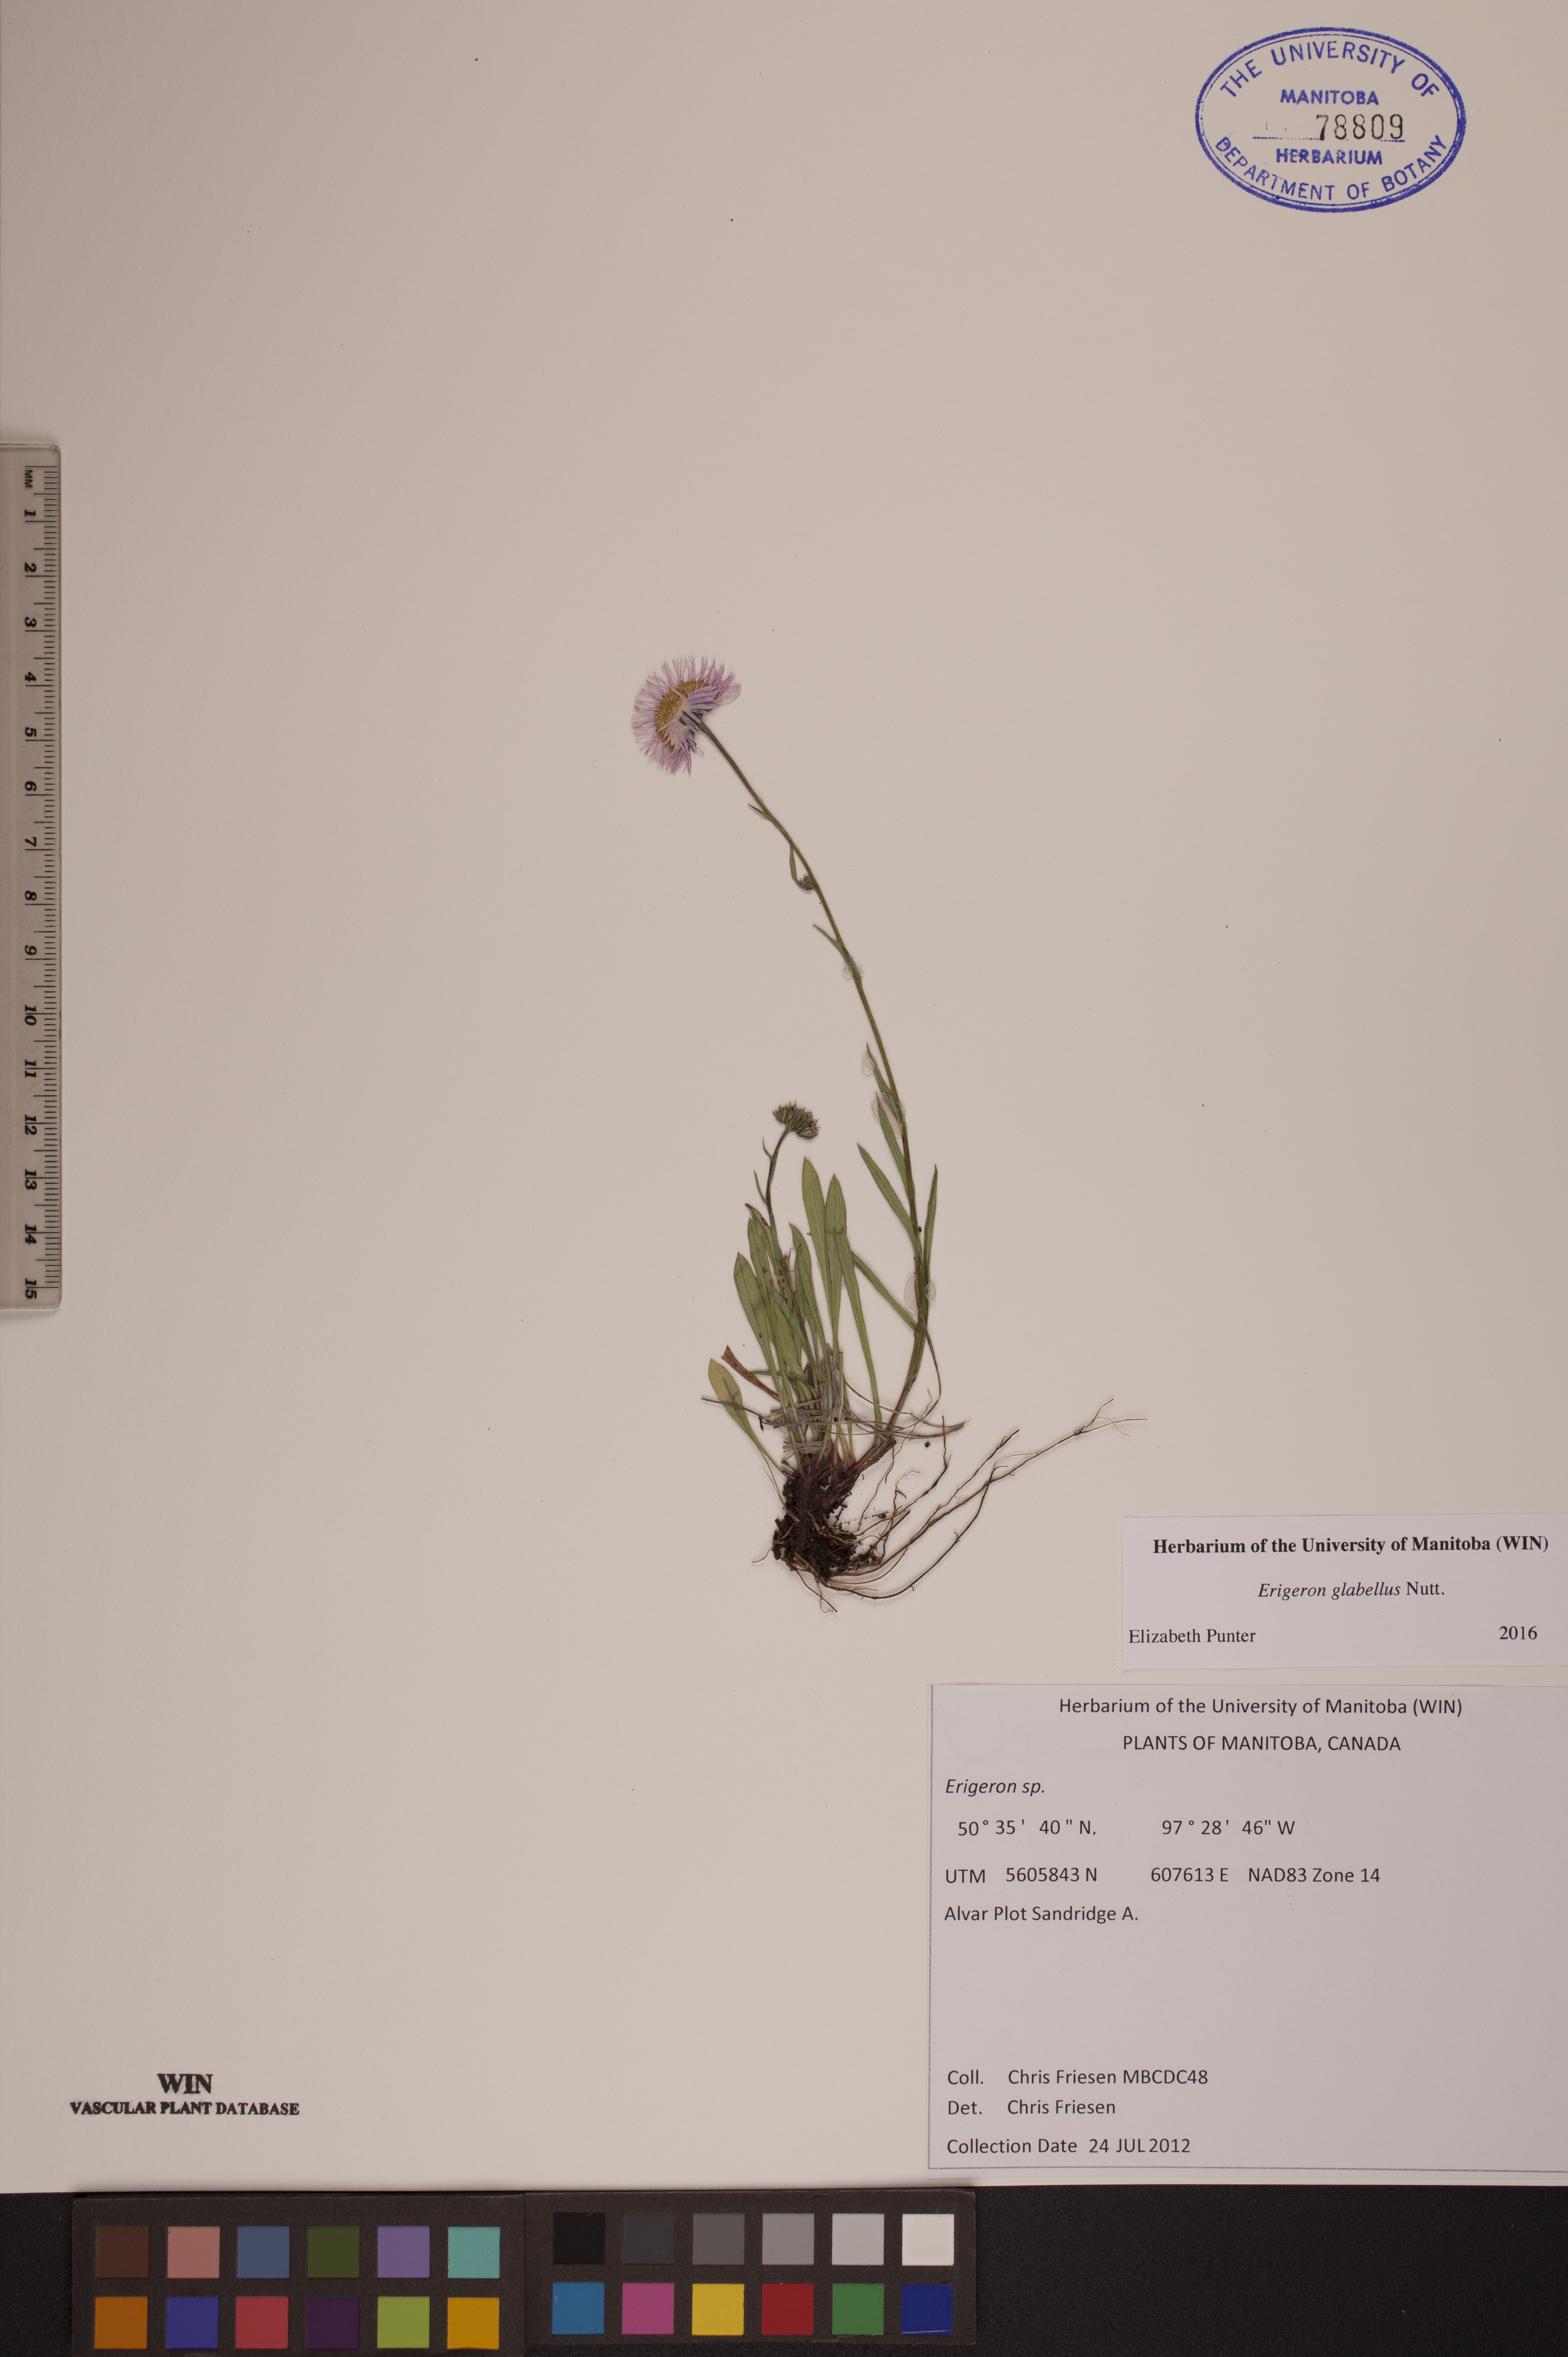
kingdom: Plantae
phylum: Tracheophyta
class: Magnoliopsida
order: Asterales
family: Asteraceae
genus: Erigeron
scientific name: Erigeron glabellus
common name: Smooth fleabane
